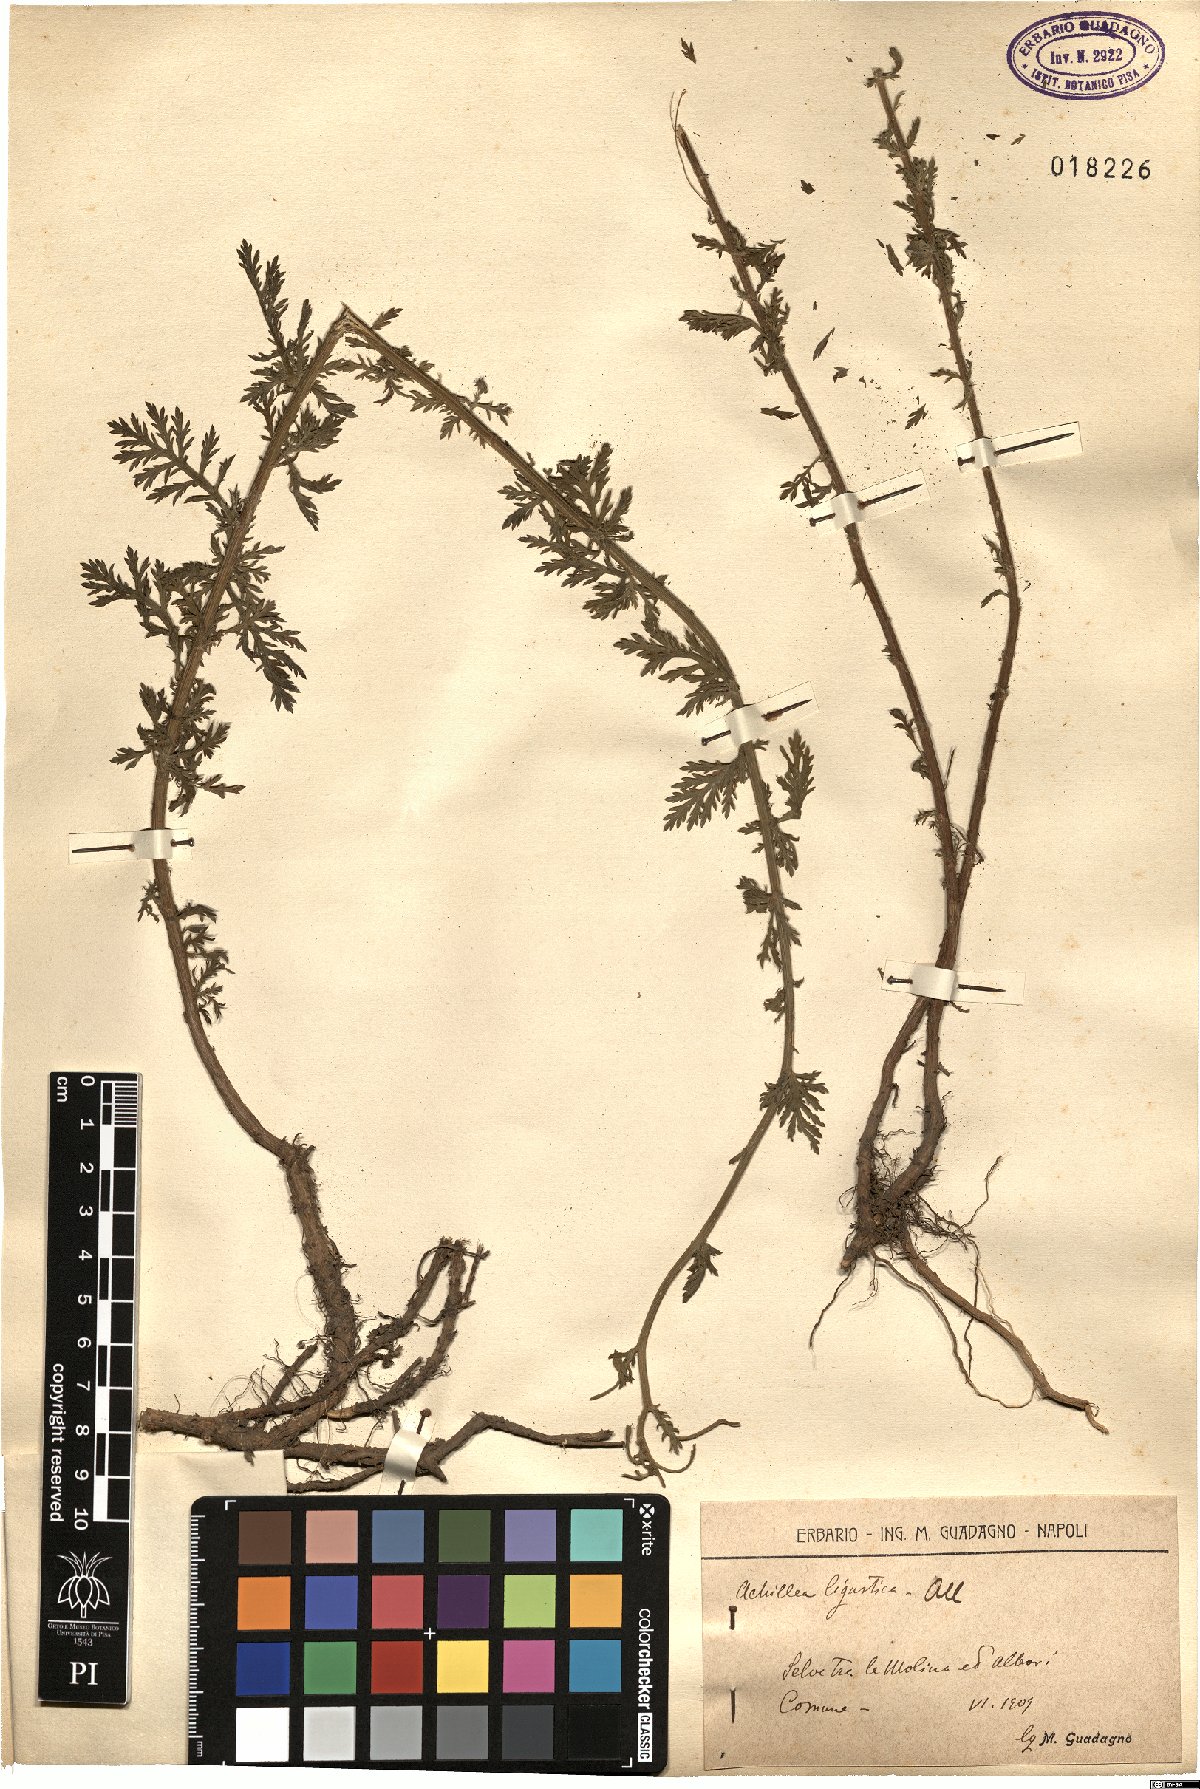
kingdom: Plantae
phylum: Tracheophyta
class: Magnoliopsida
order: Asterales
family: Asteraceae
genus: Achillea
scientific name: Achillea ligustica
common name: Southern yarrow
